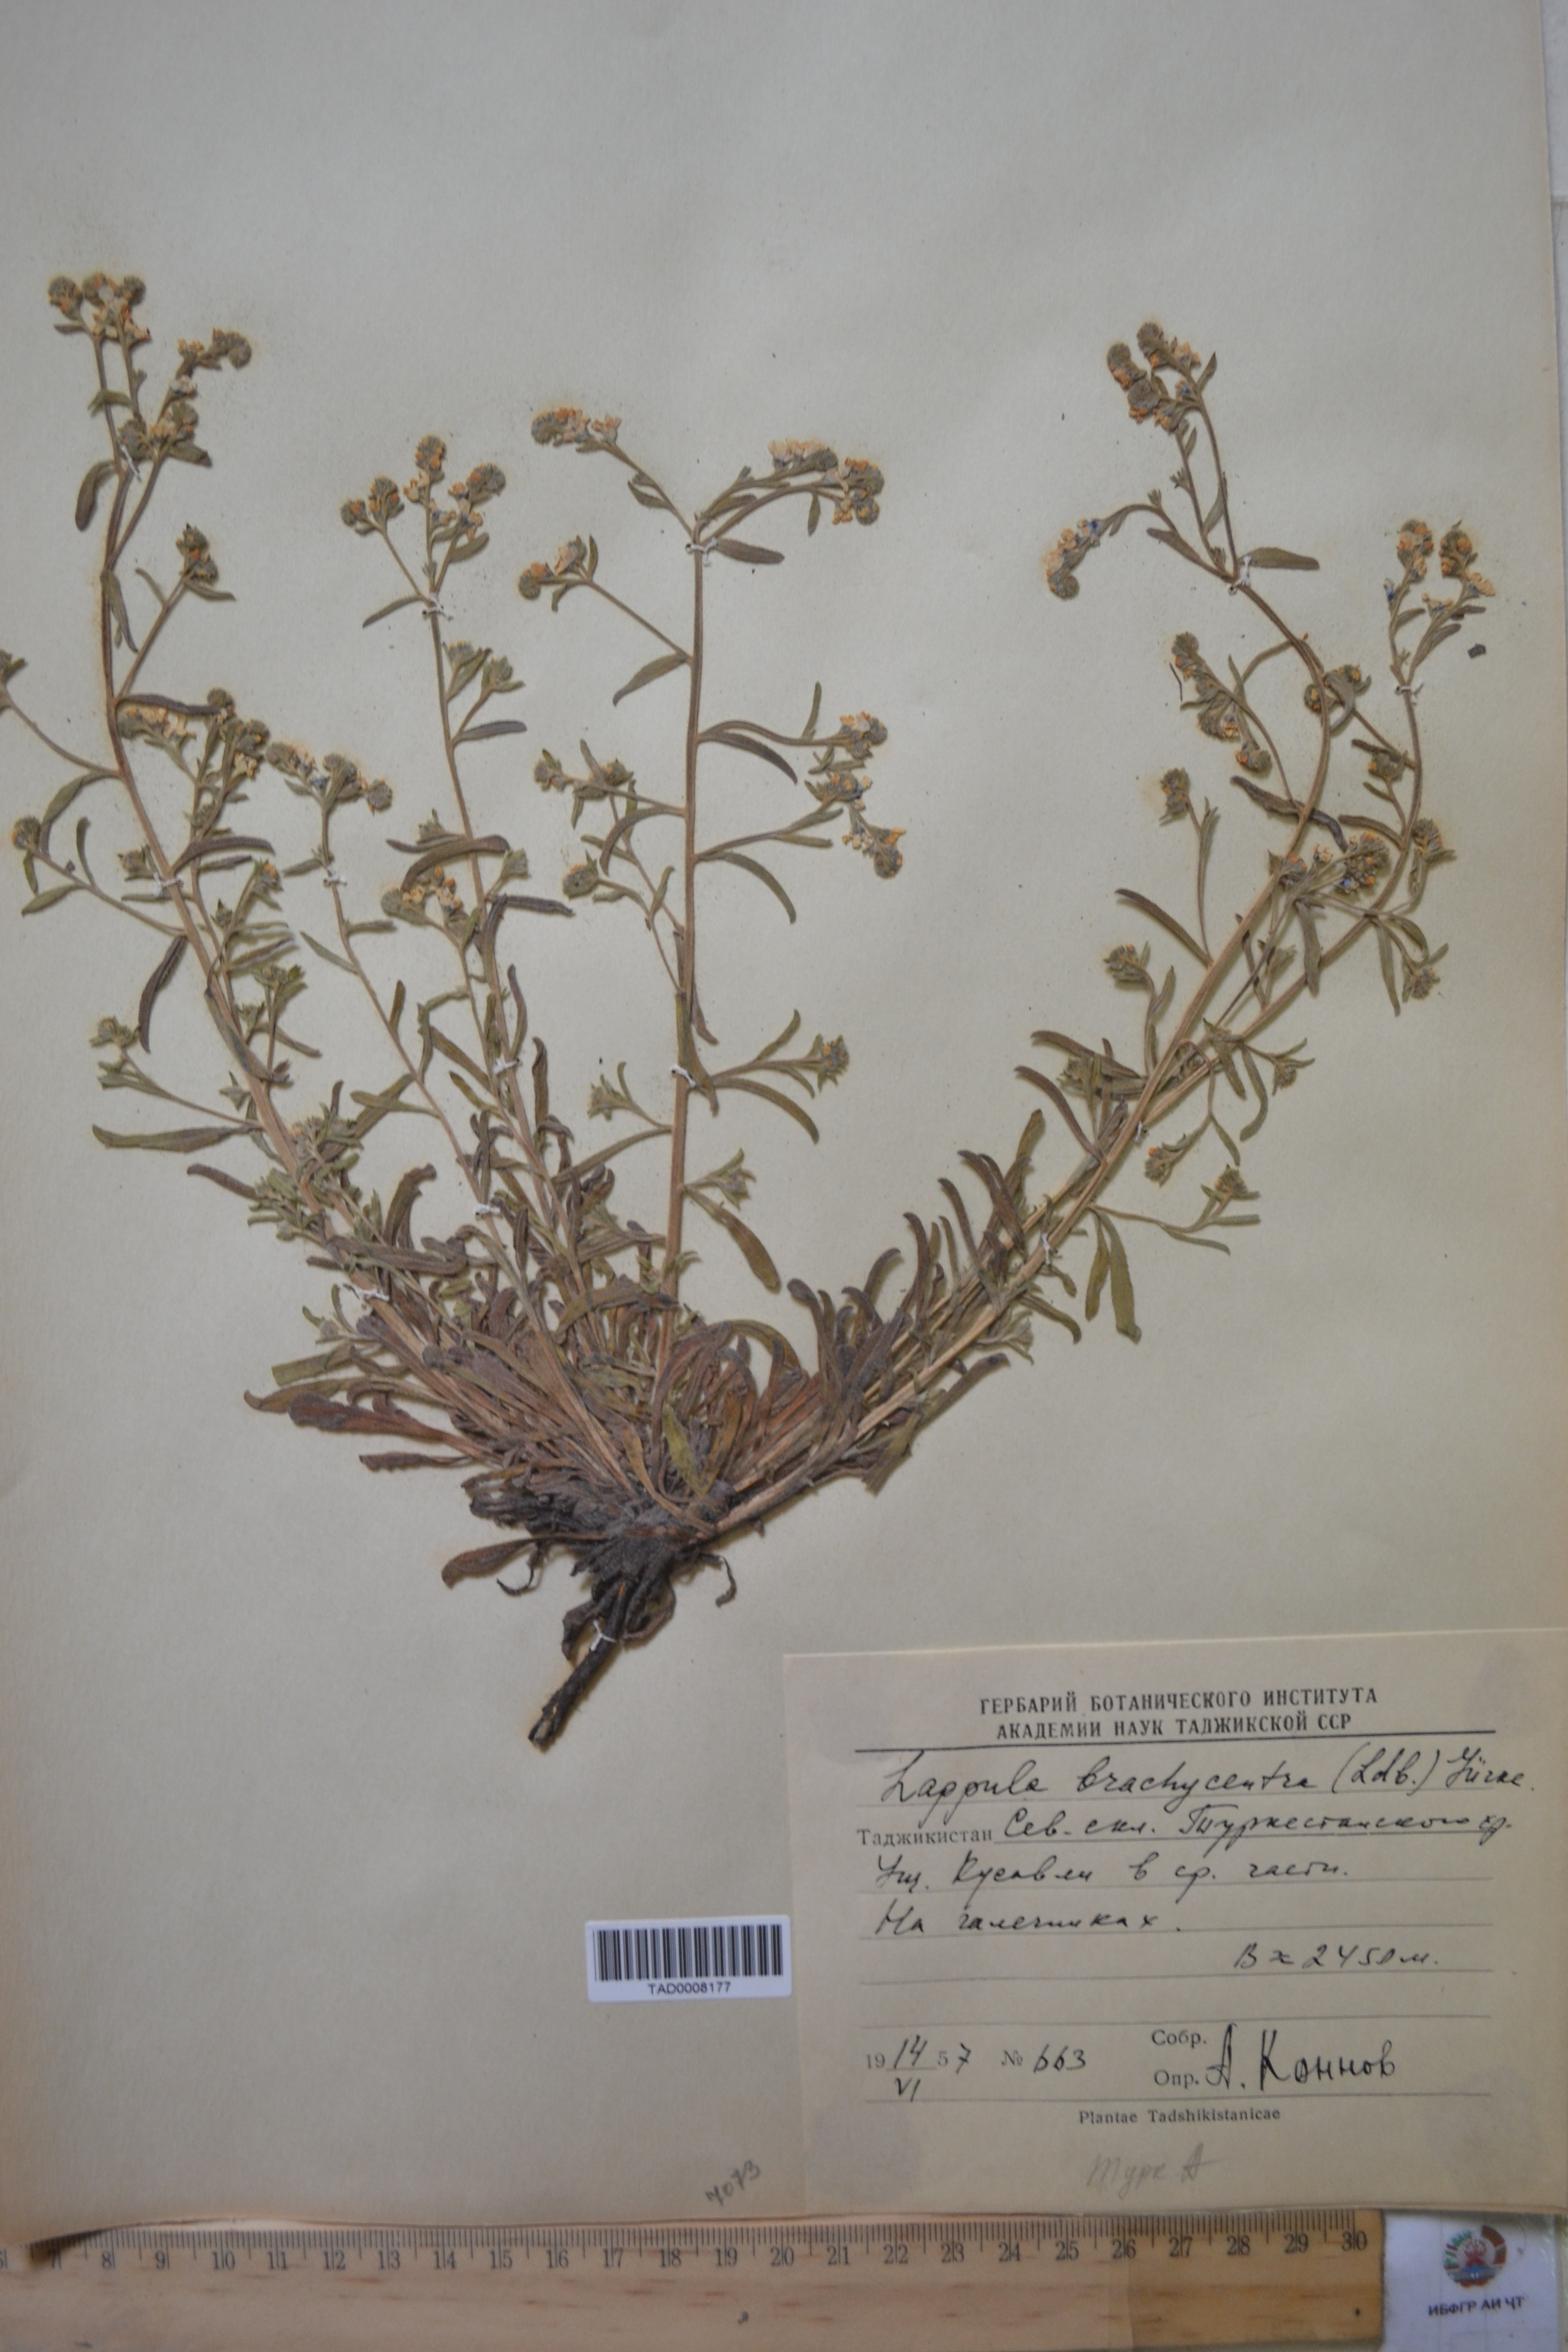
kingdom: Plantae
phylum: Tracheophyta
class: Magnoliopsida
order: Boraginales
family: Boraginaceae
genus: Lappula
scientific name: Lappula brachycentra
